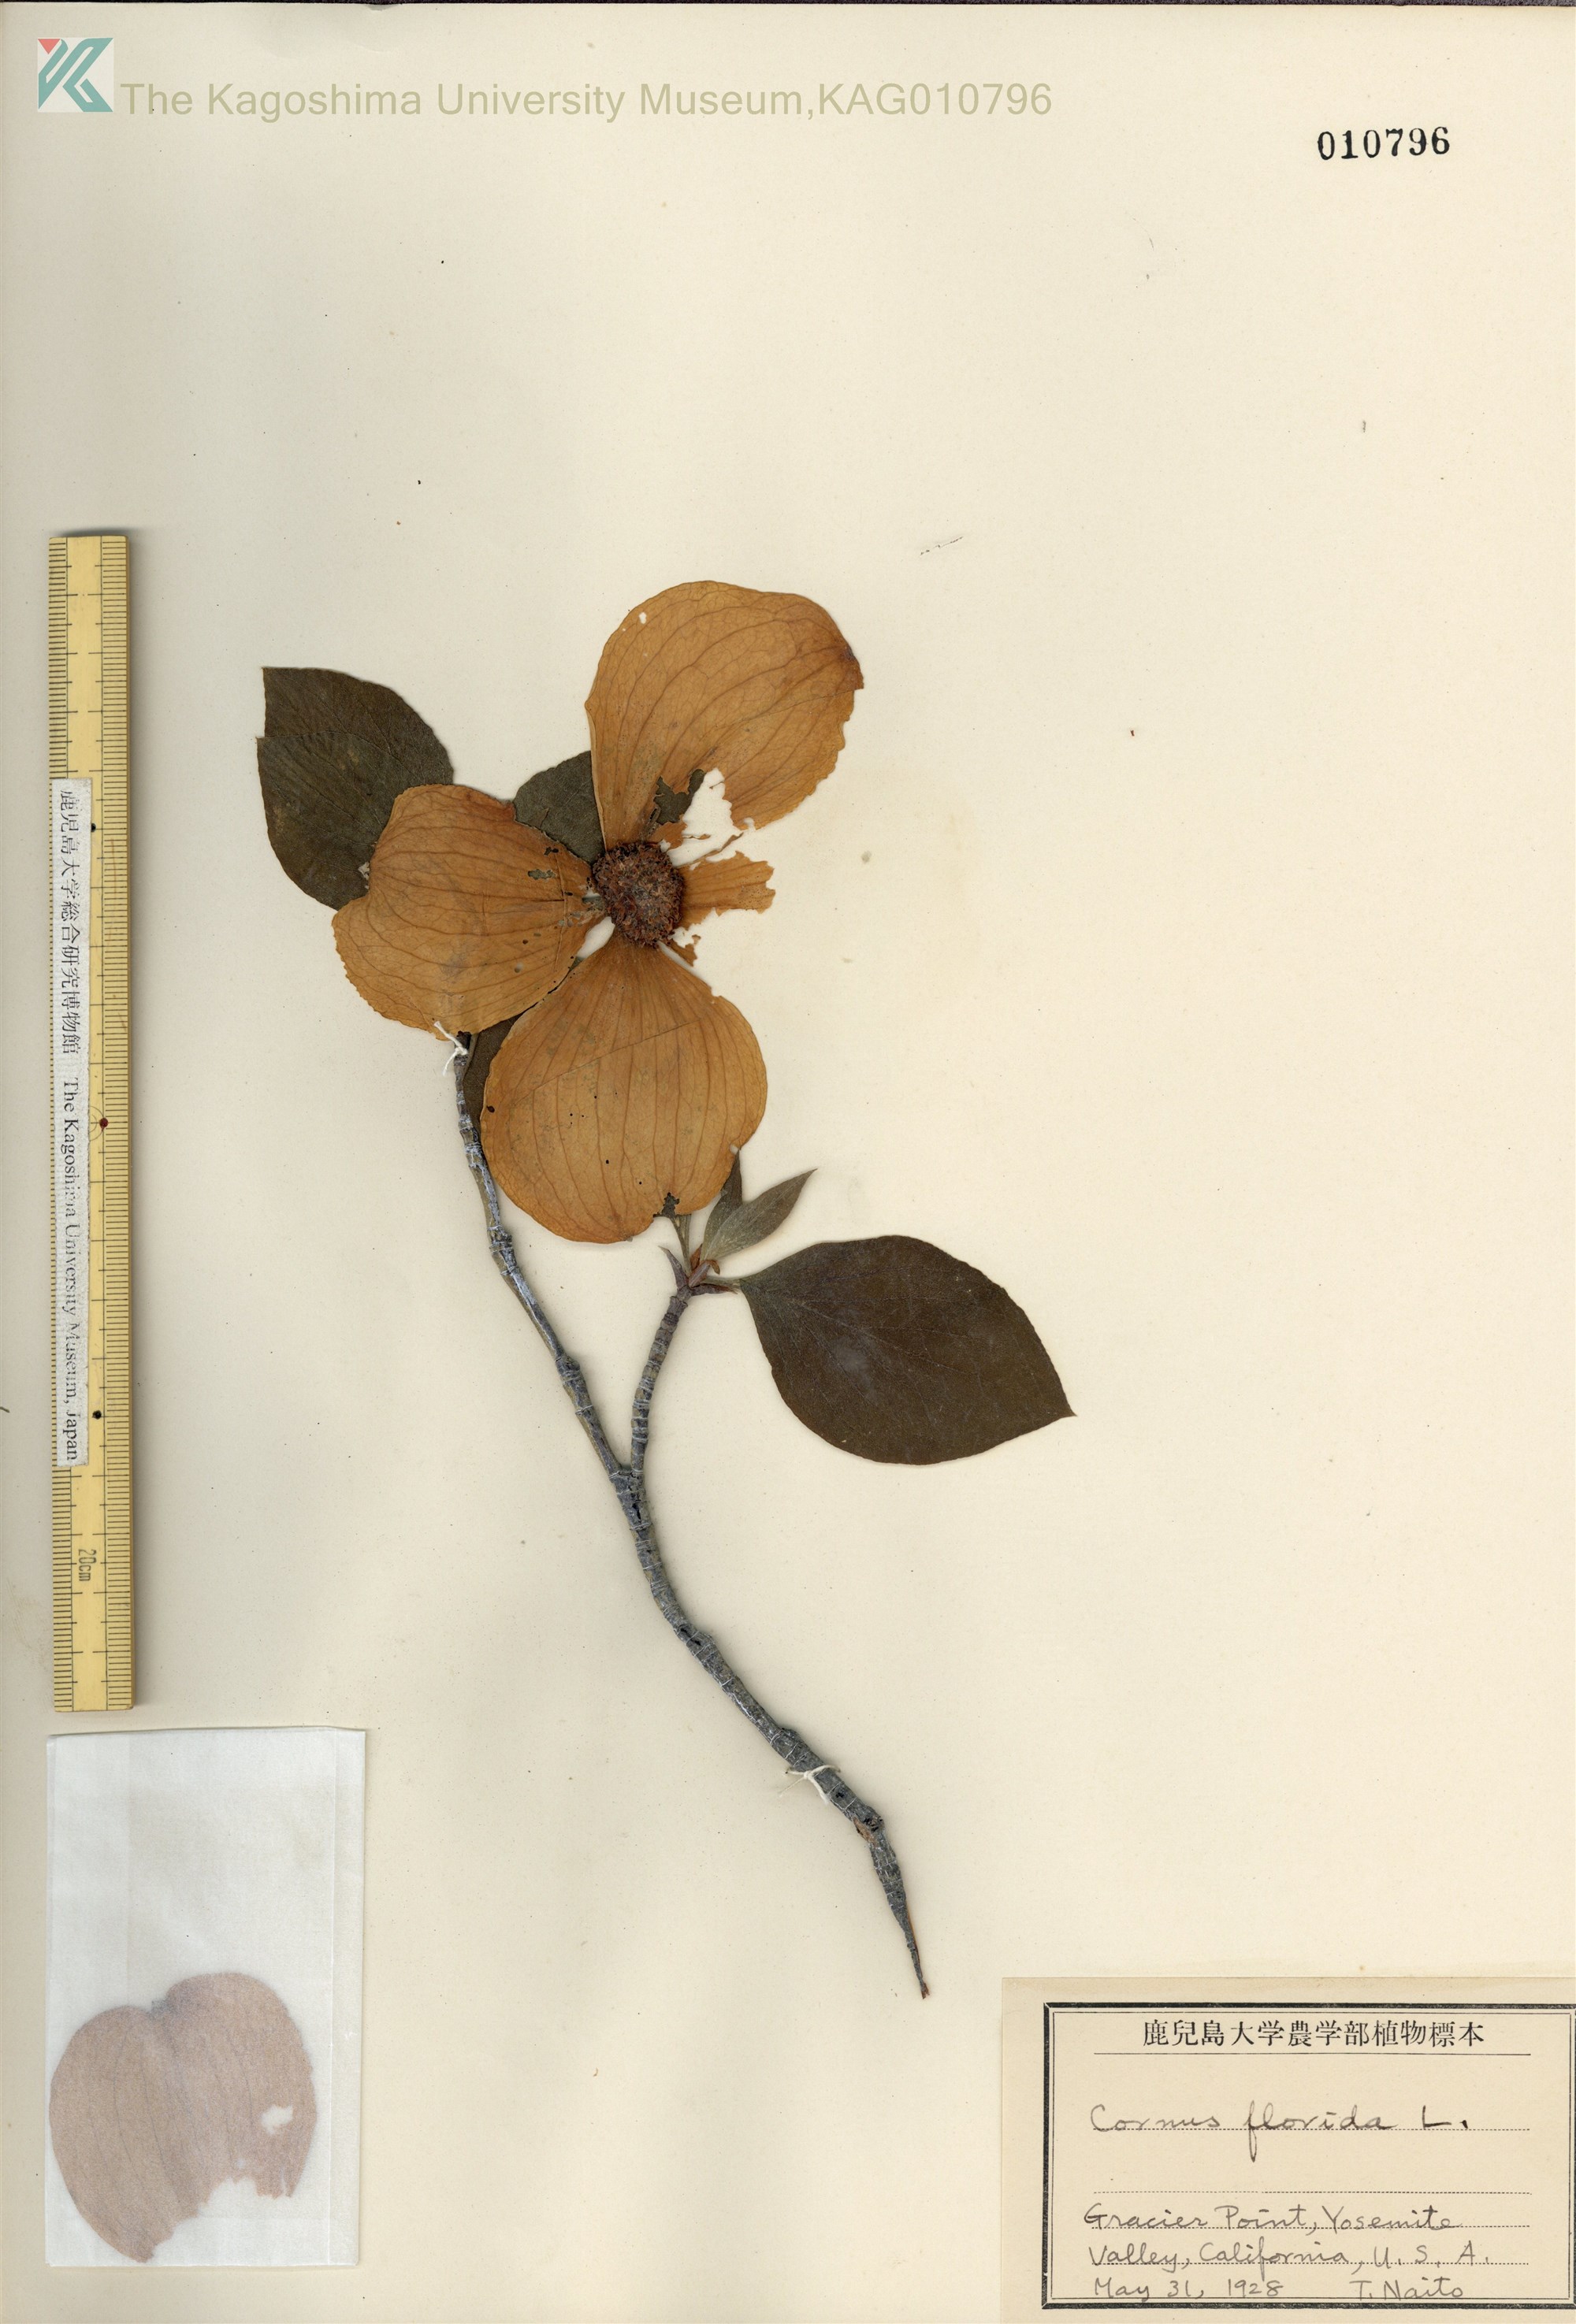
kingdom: Plantae
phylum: Tracheophyta
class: Magnoliopsida
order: Cornales
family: Cornaceae
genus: Cornus
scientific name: Cornus florida
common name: Flowering dogwood
